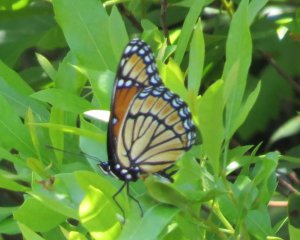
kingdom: Animalia
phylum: Arthropoda
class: Insecta
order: Lepidoptera
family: Nymphalidae
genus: Limenitis
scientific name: Limenitis archippus
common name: Viceroy
